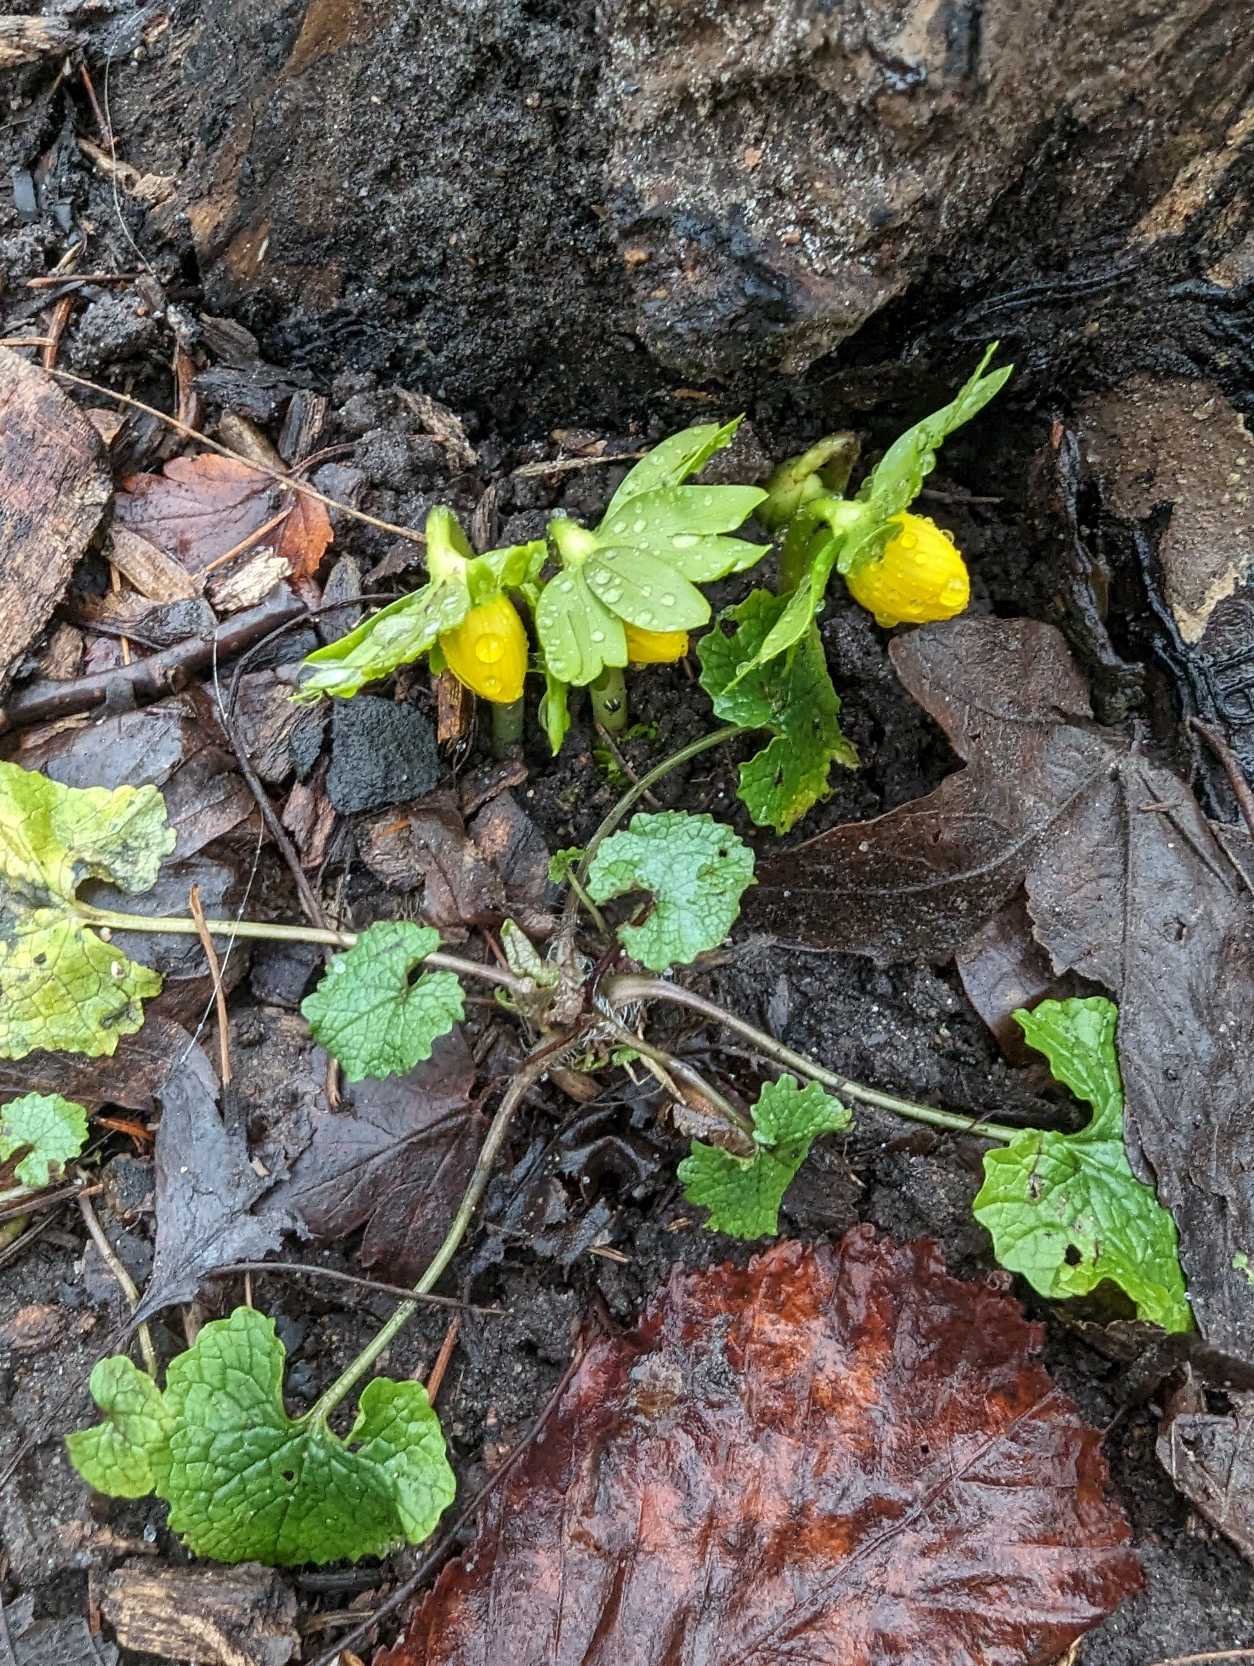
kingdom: Plantae
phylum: Tracheophyta
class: Magnoliopsida
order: Ranunculales
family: Ranunculaceae
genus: Eranthis
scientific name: Eranthis hyemalis
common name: Erantis
